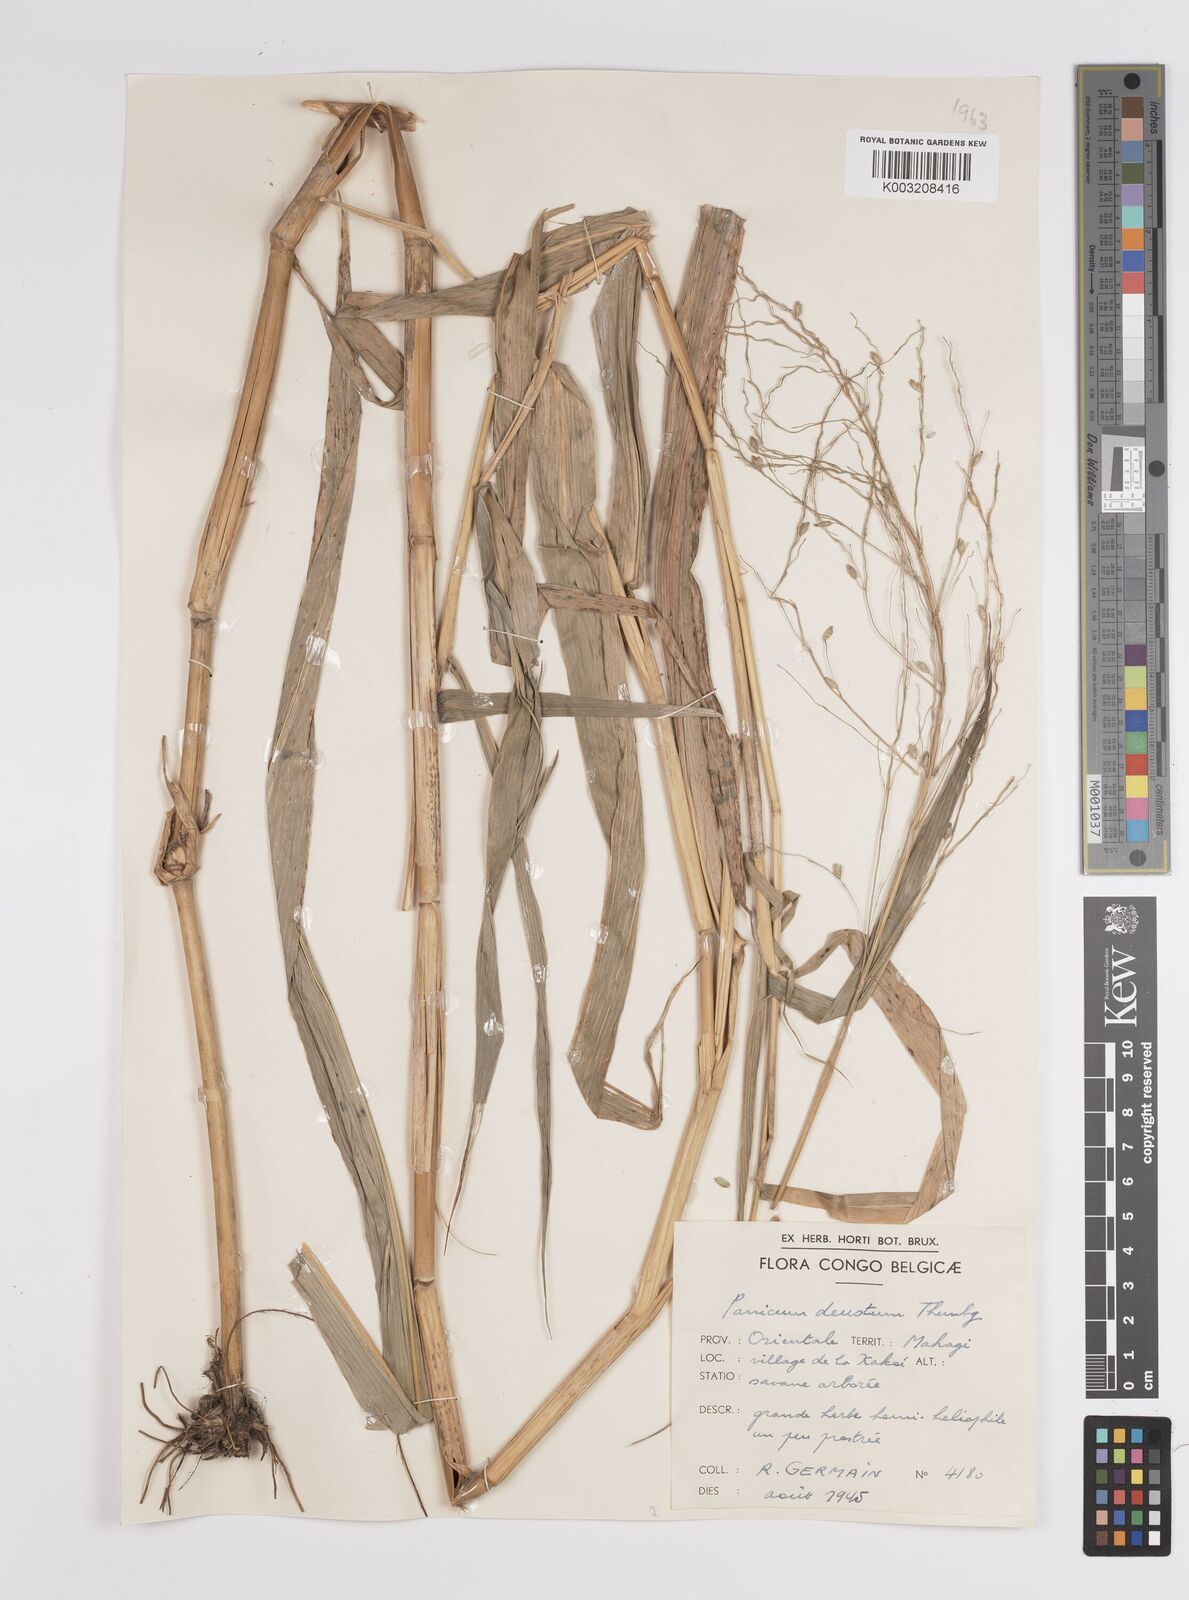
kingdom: Plantae
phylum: Tracheophyta
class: Liliopsida
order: Poales
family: Poaceae
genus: Panicum
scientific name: Panicum deustum
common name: Reed panicum
